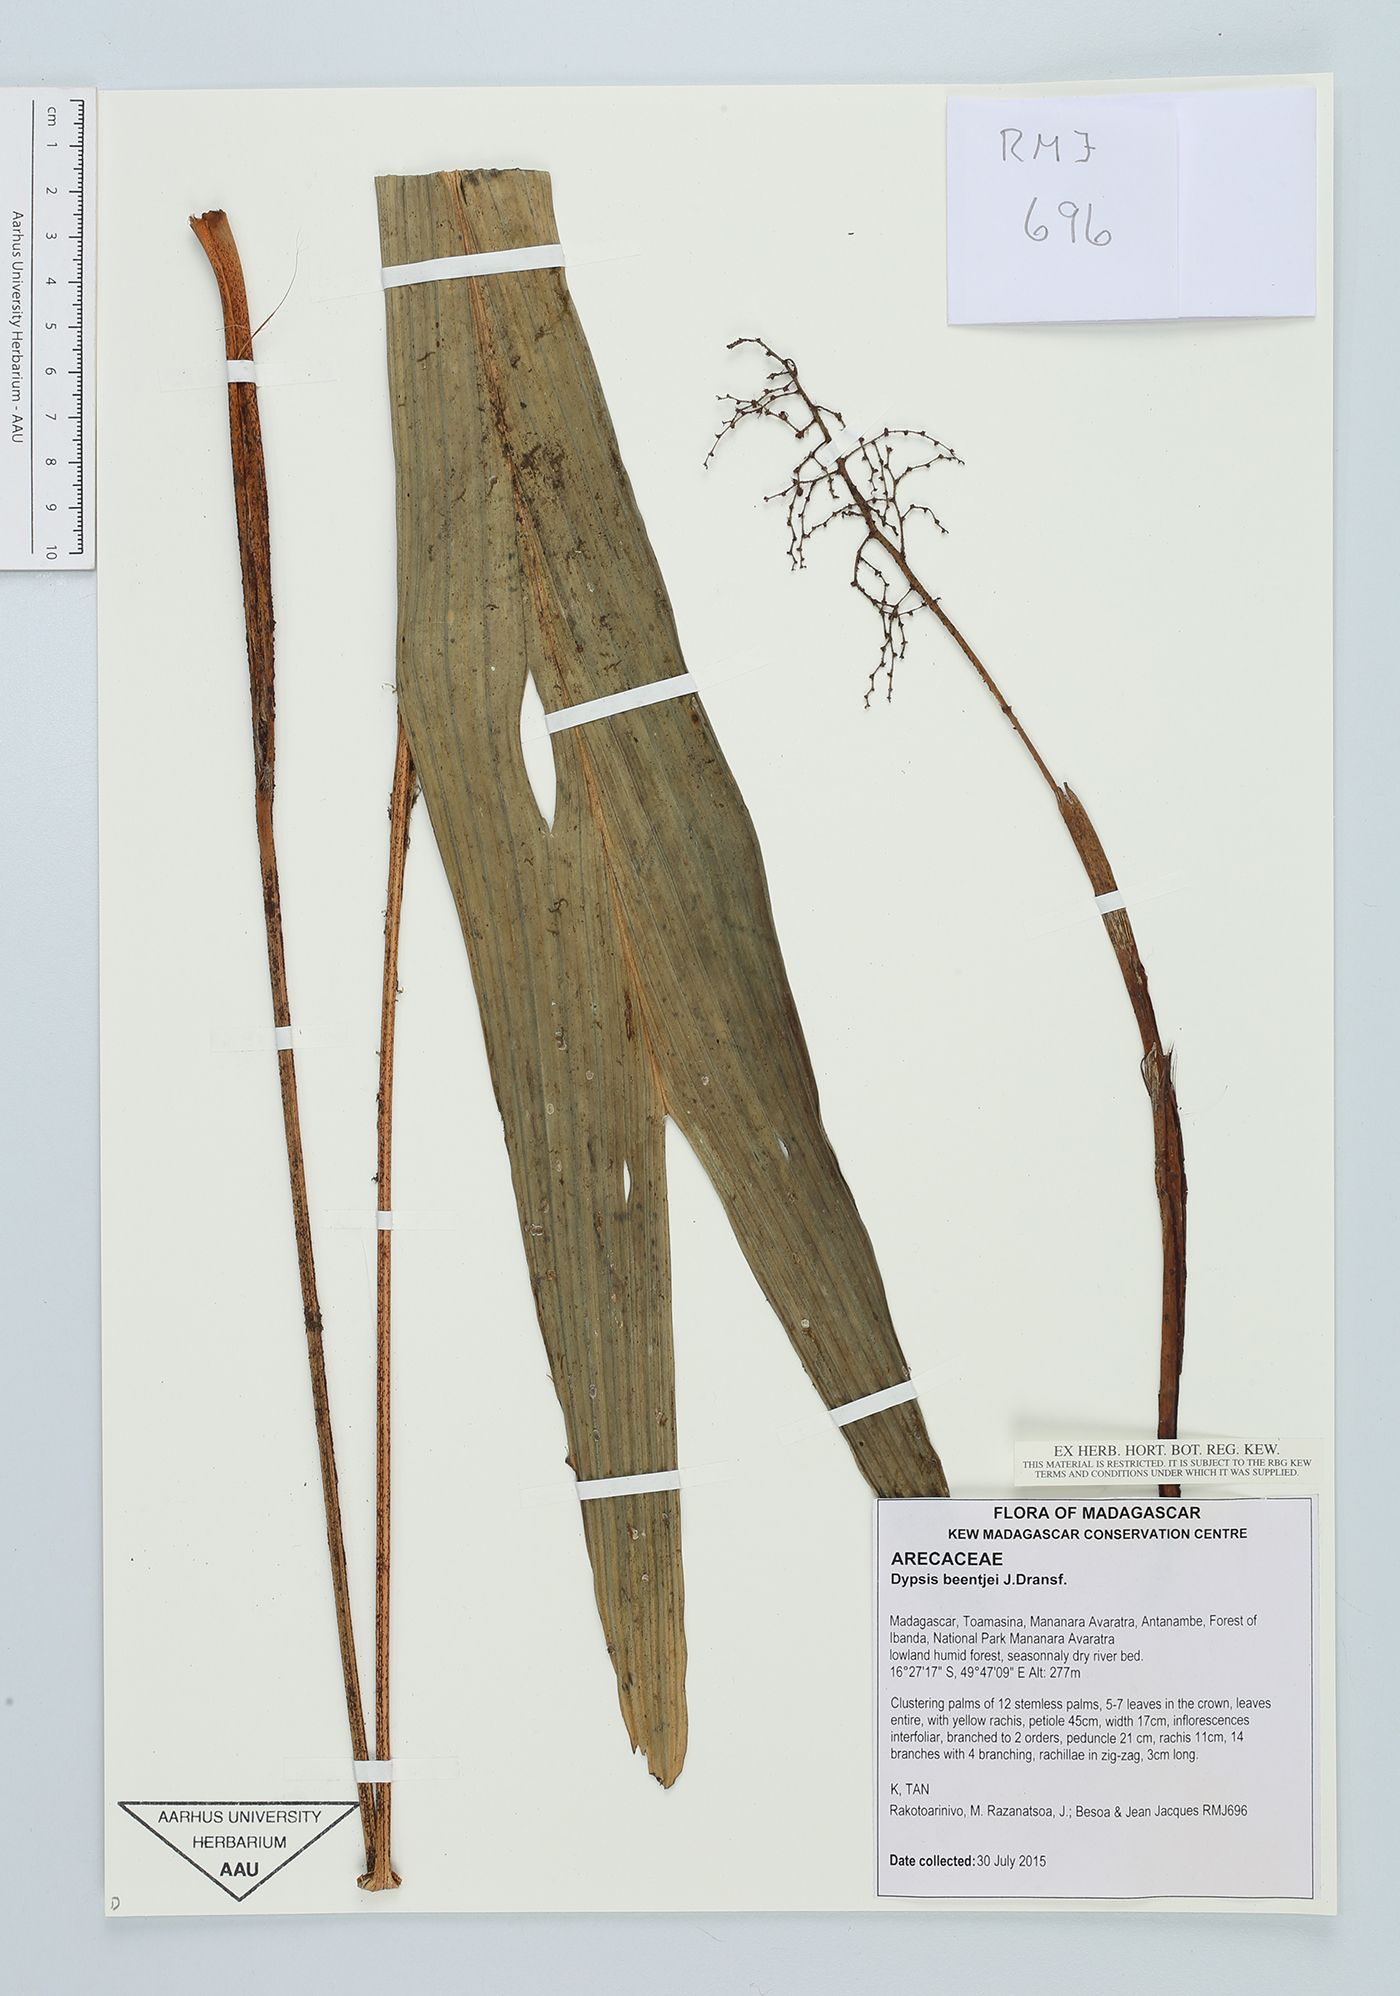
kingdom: Plantae
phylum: Tracheophyta
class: Liliopsida
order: Arecales
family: Arecaceae
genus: Dypsis
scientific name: Dypsis beentjei
